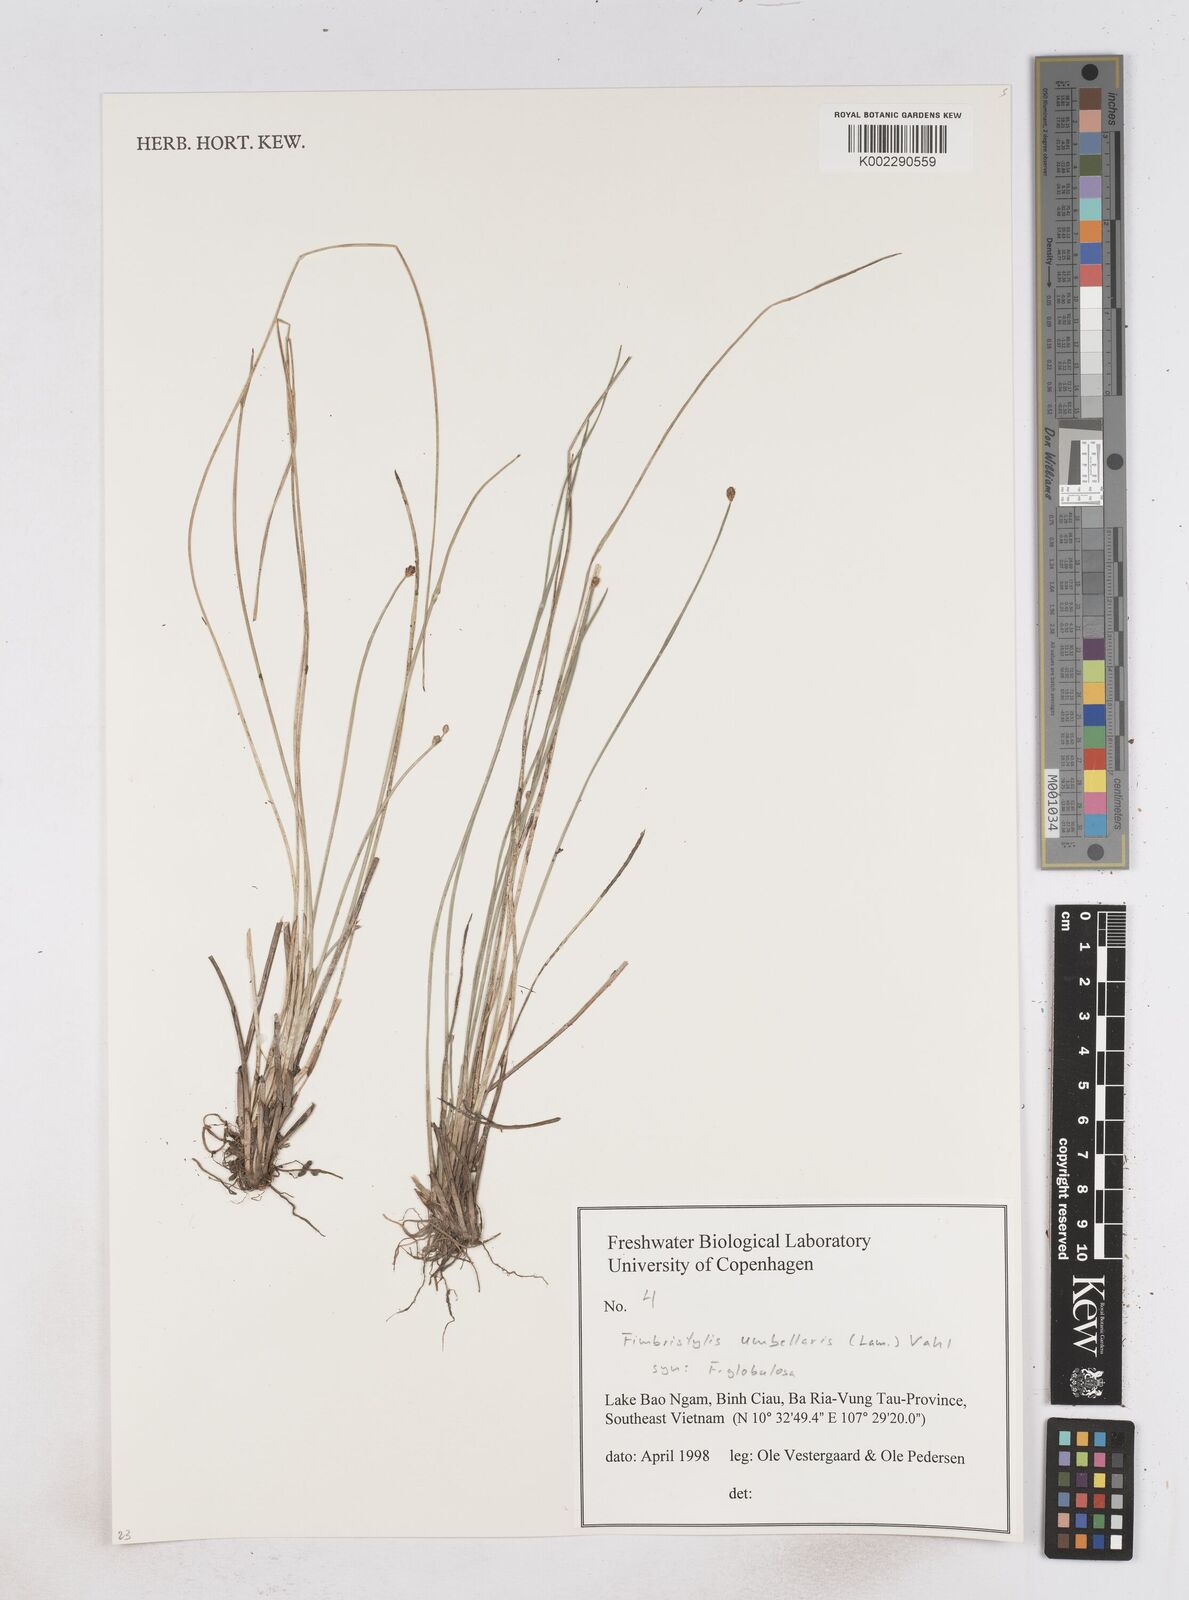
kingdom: Plantae
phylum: Tracheophyta
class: Liliopsida
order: Poales
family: Cyperaceae
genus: Fimbristylis
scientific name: Fimbristylis umbellaris
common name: Globular fimbristylis
